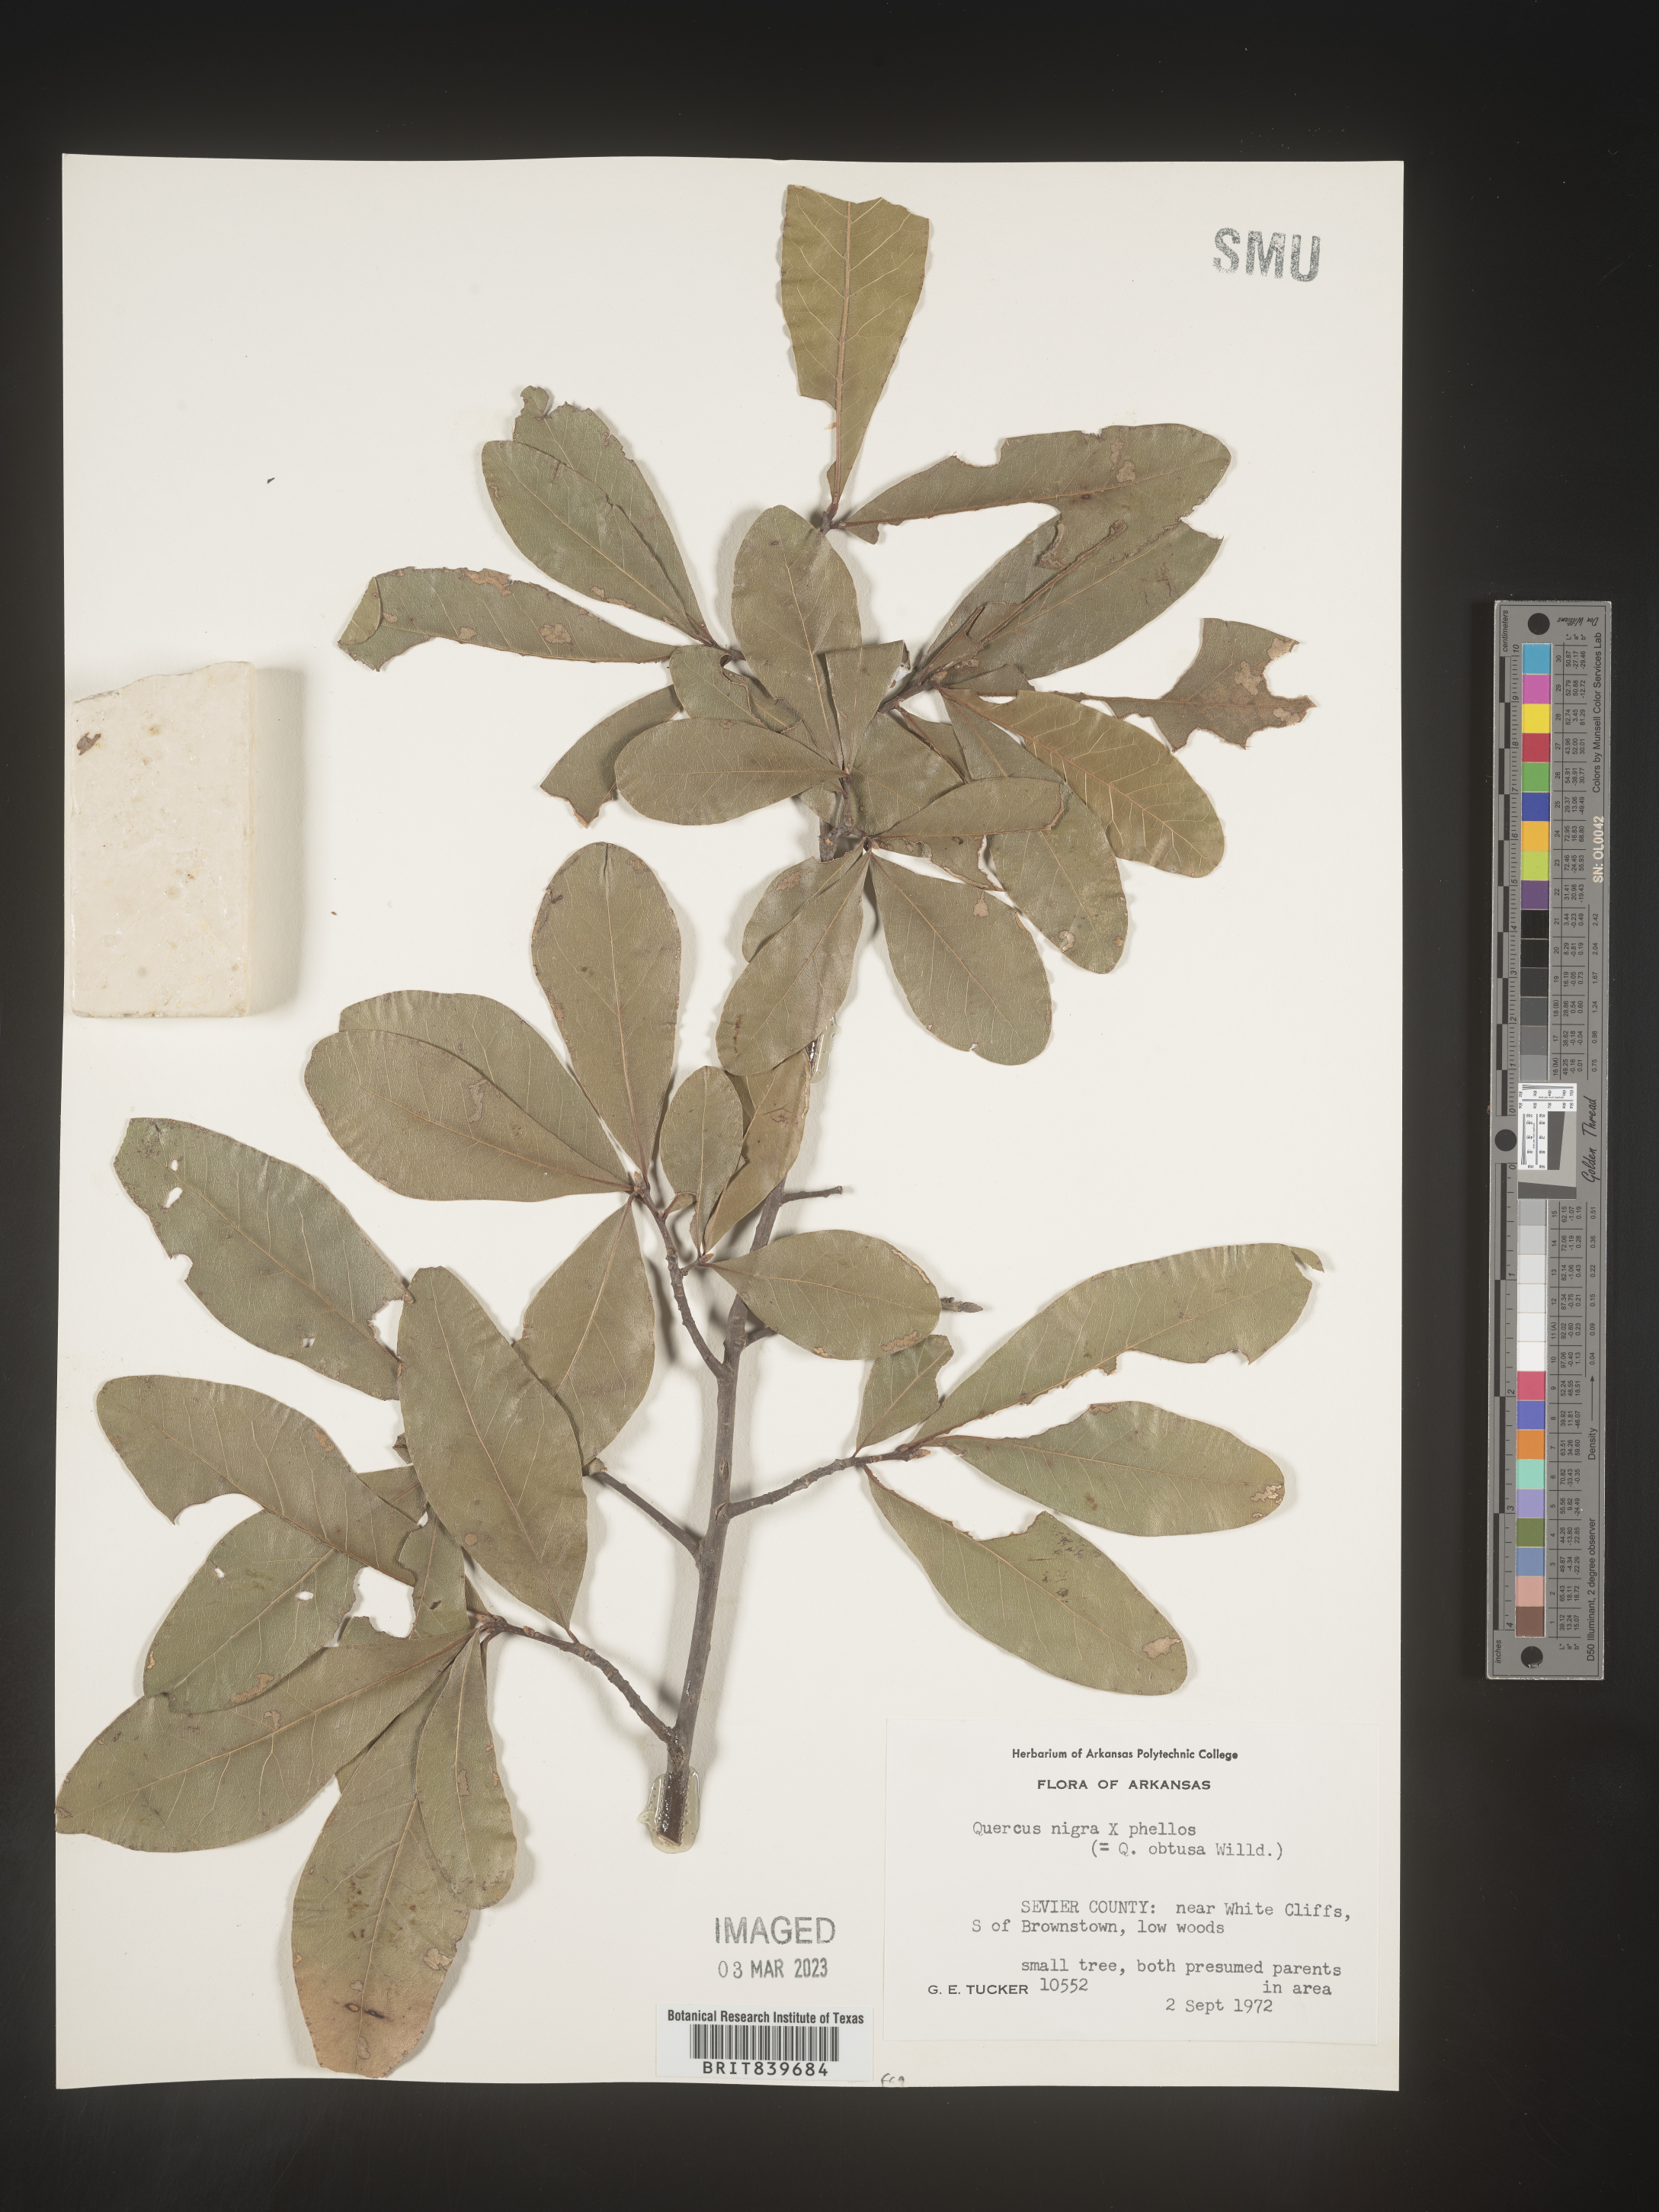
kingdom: Plantae
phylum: Tracheophyta
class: Magnoliopsida
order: Fagales
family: Fagaceae
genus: Quercus
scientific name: Quercus nigra
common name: Water oak
